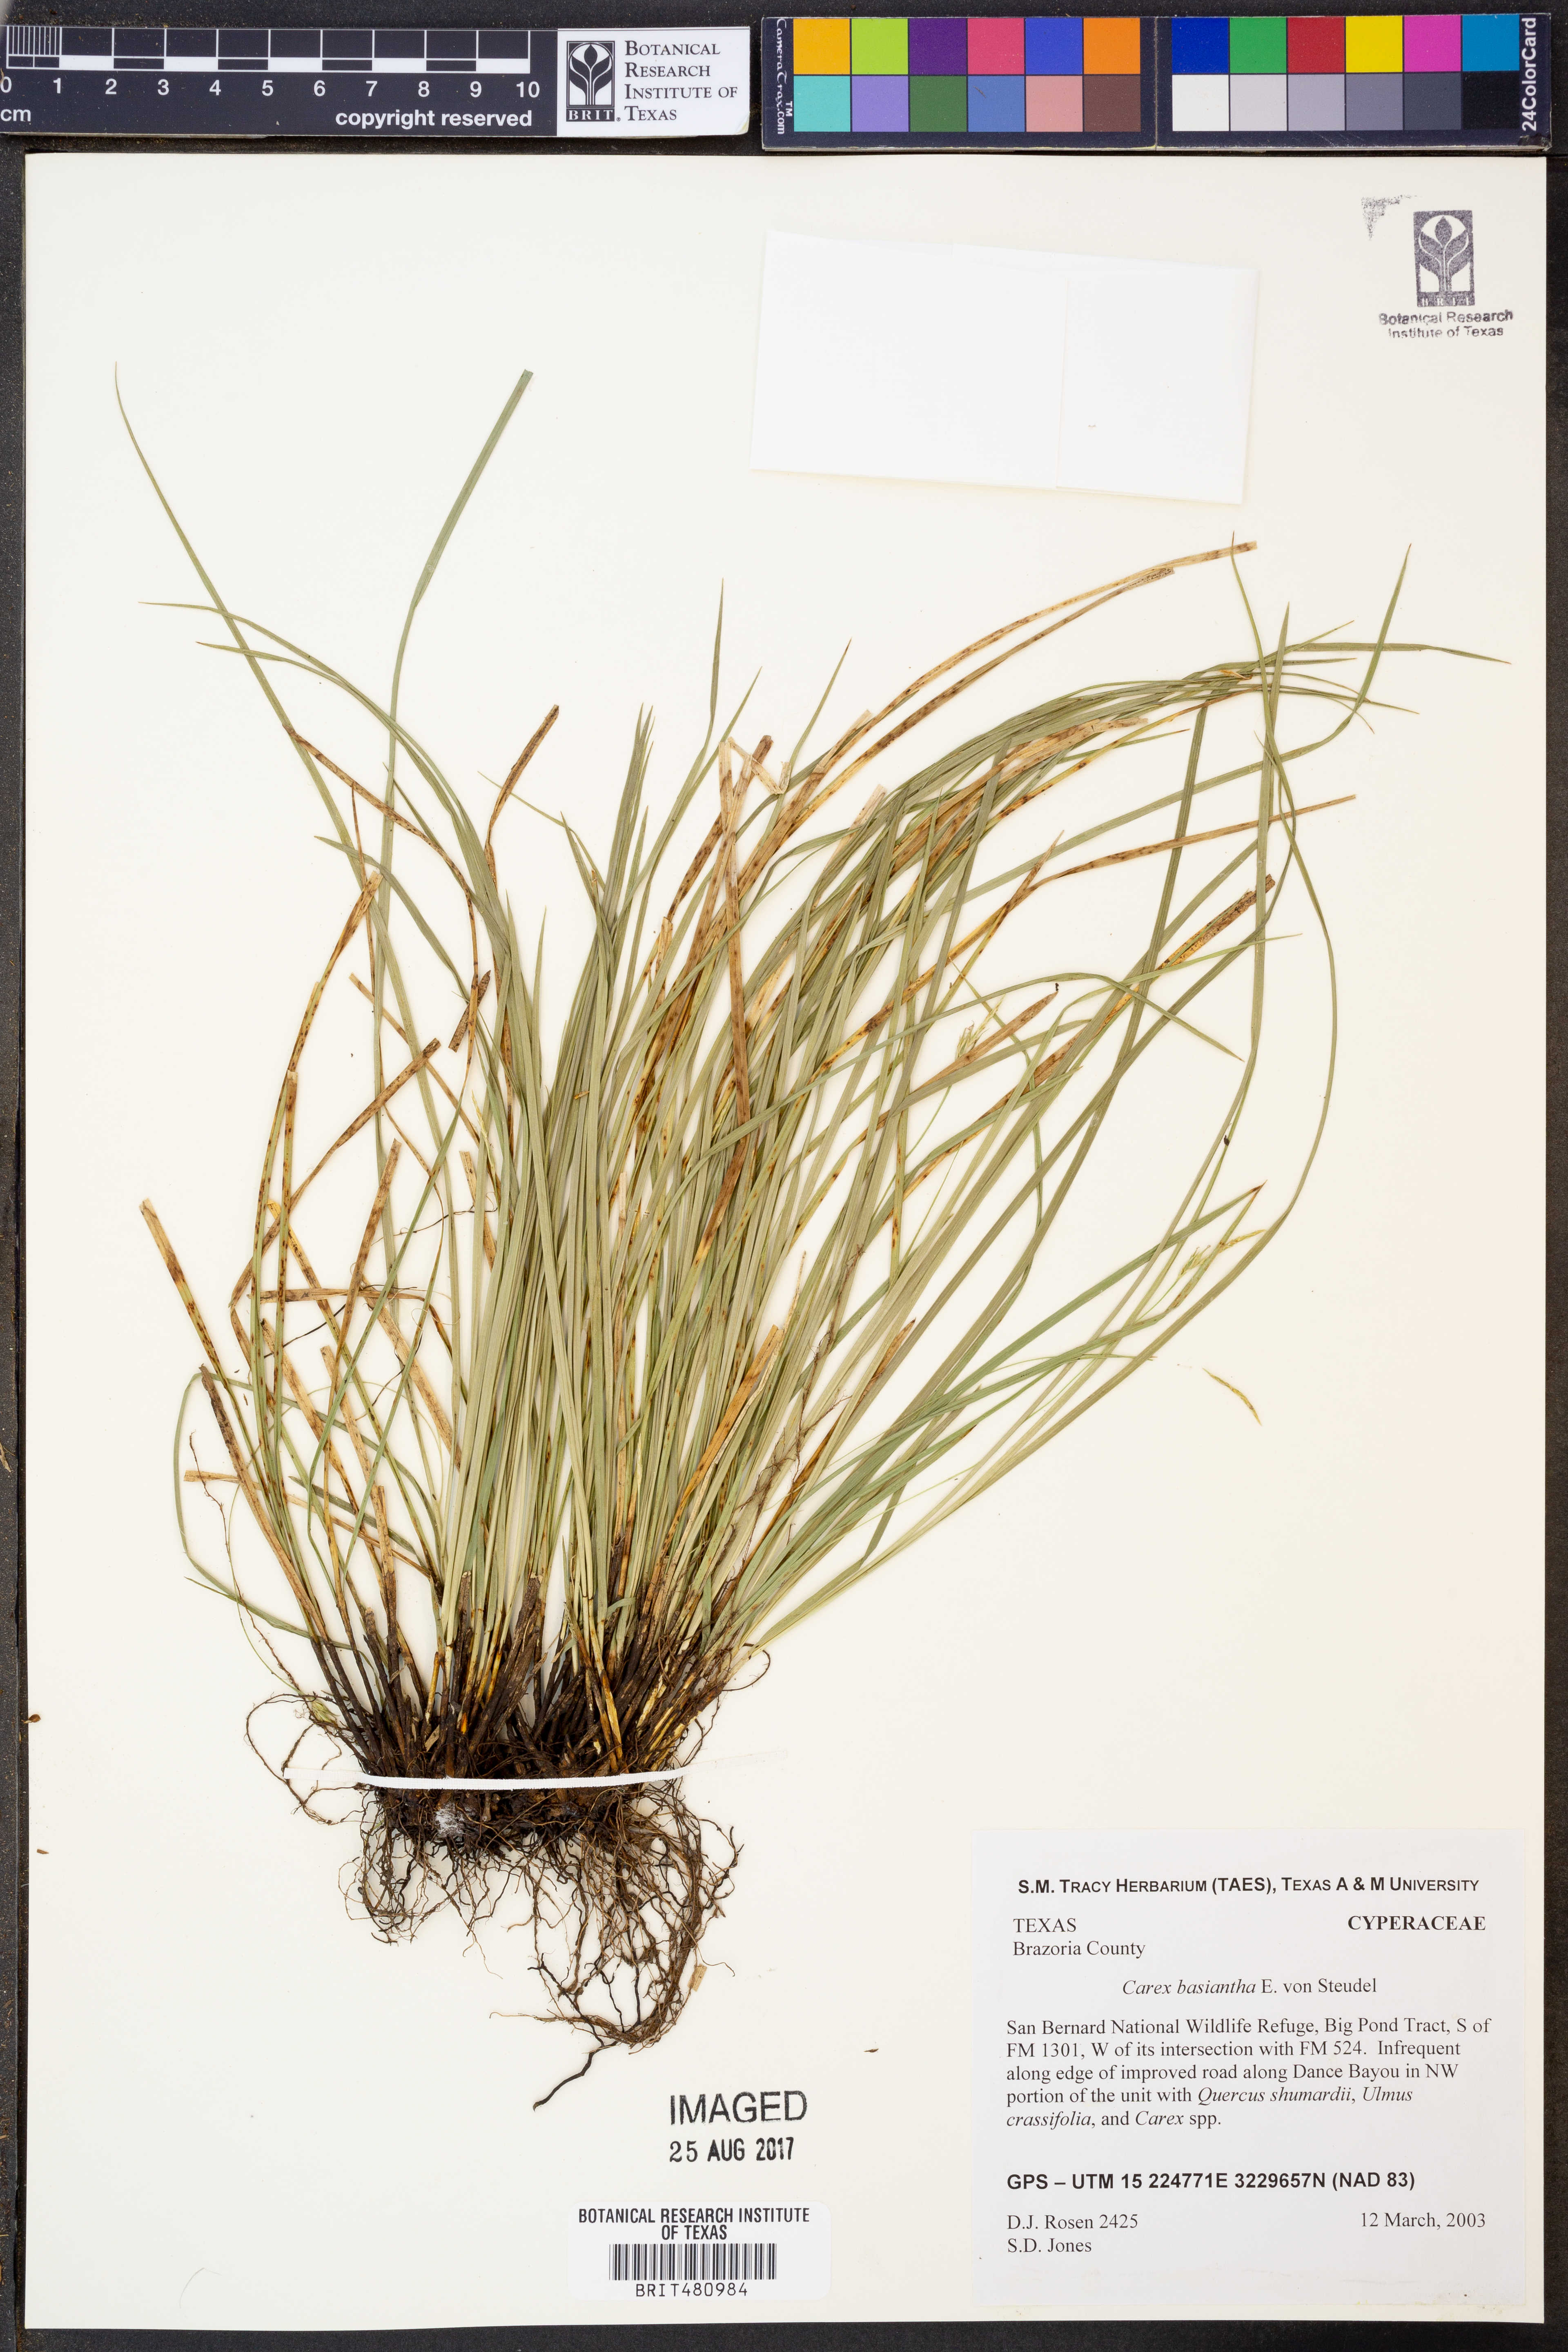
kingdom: Plantae
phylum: Tracheophyta
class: Liliopsida
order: Poales
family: Cyperaceae
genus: Carex
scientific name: Carex basiantha
